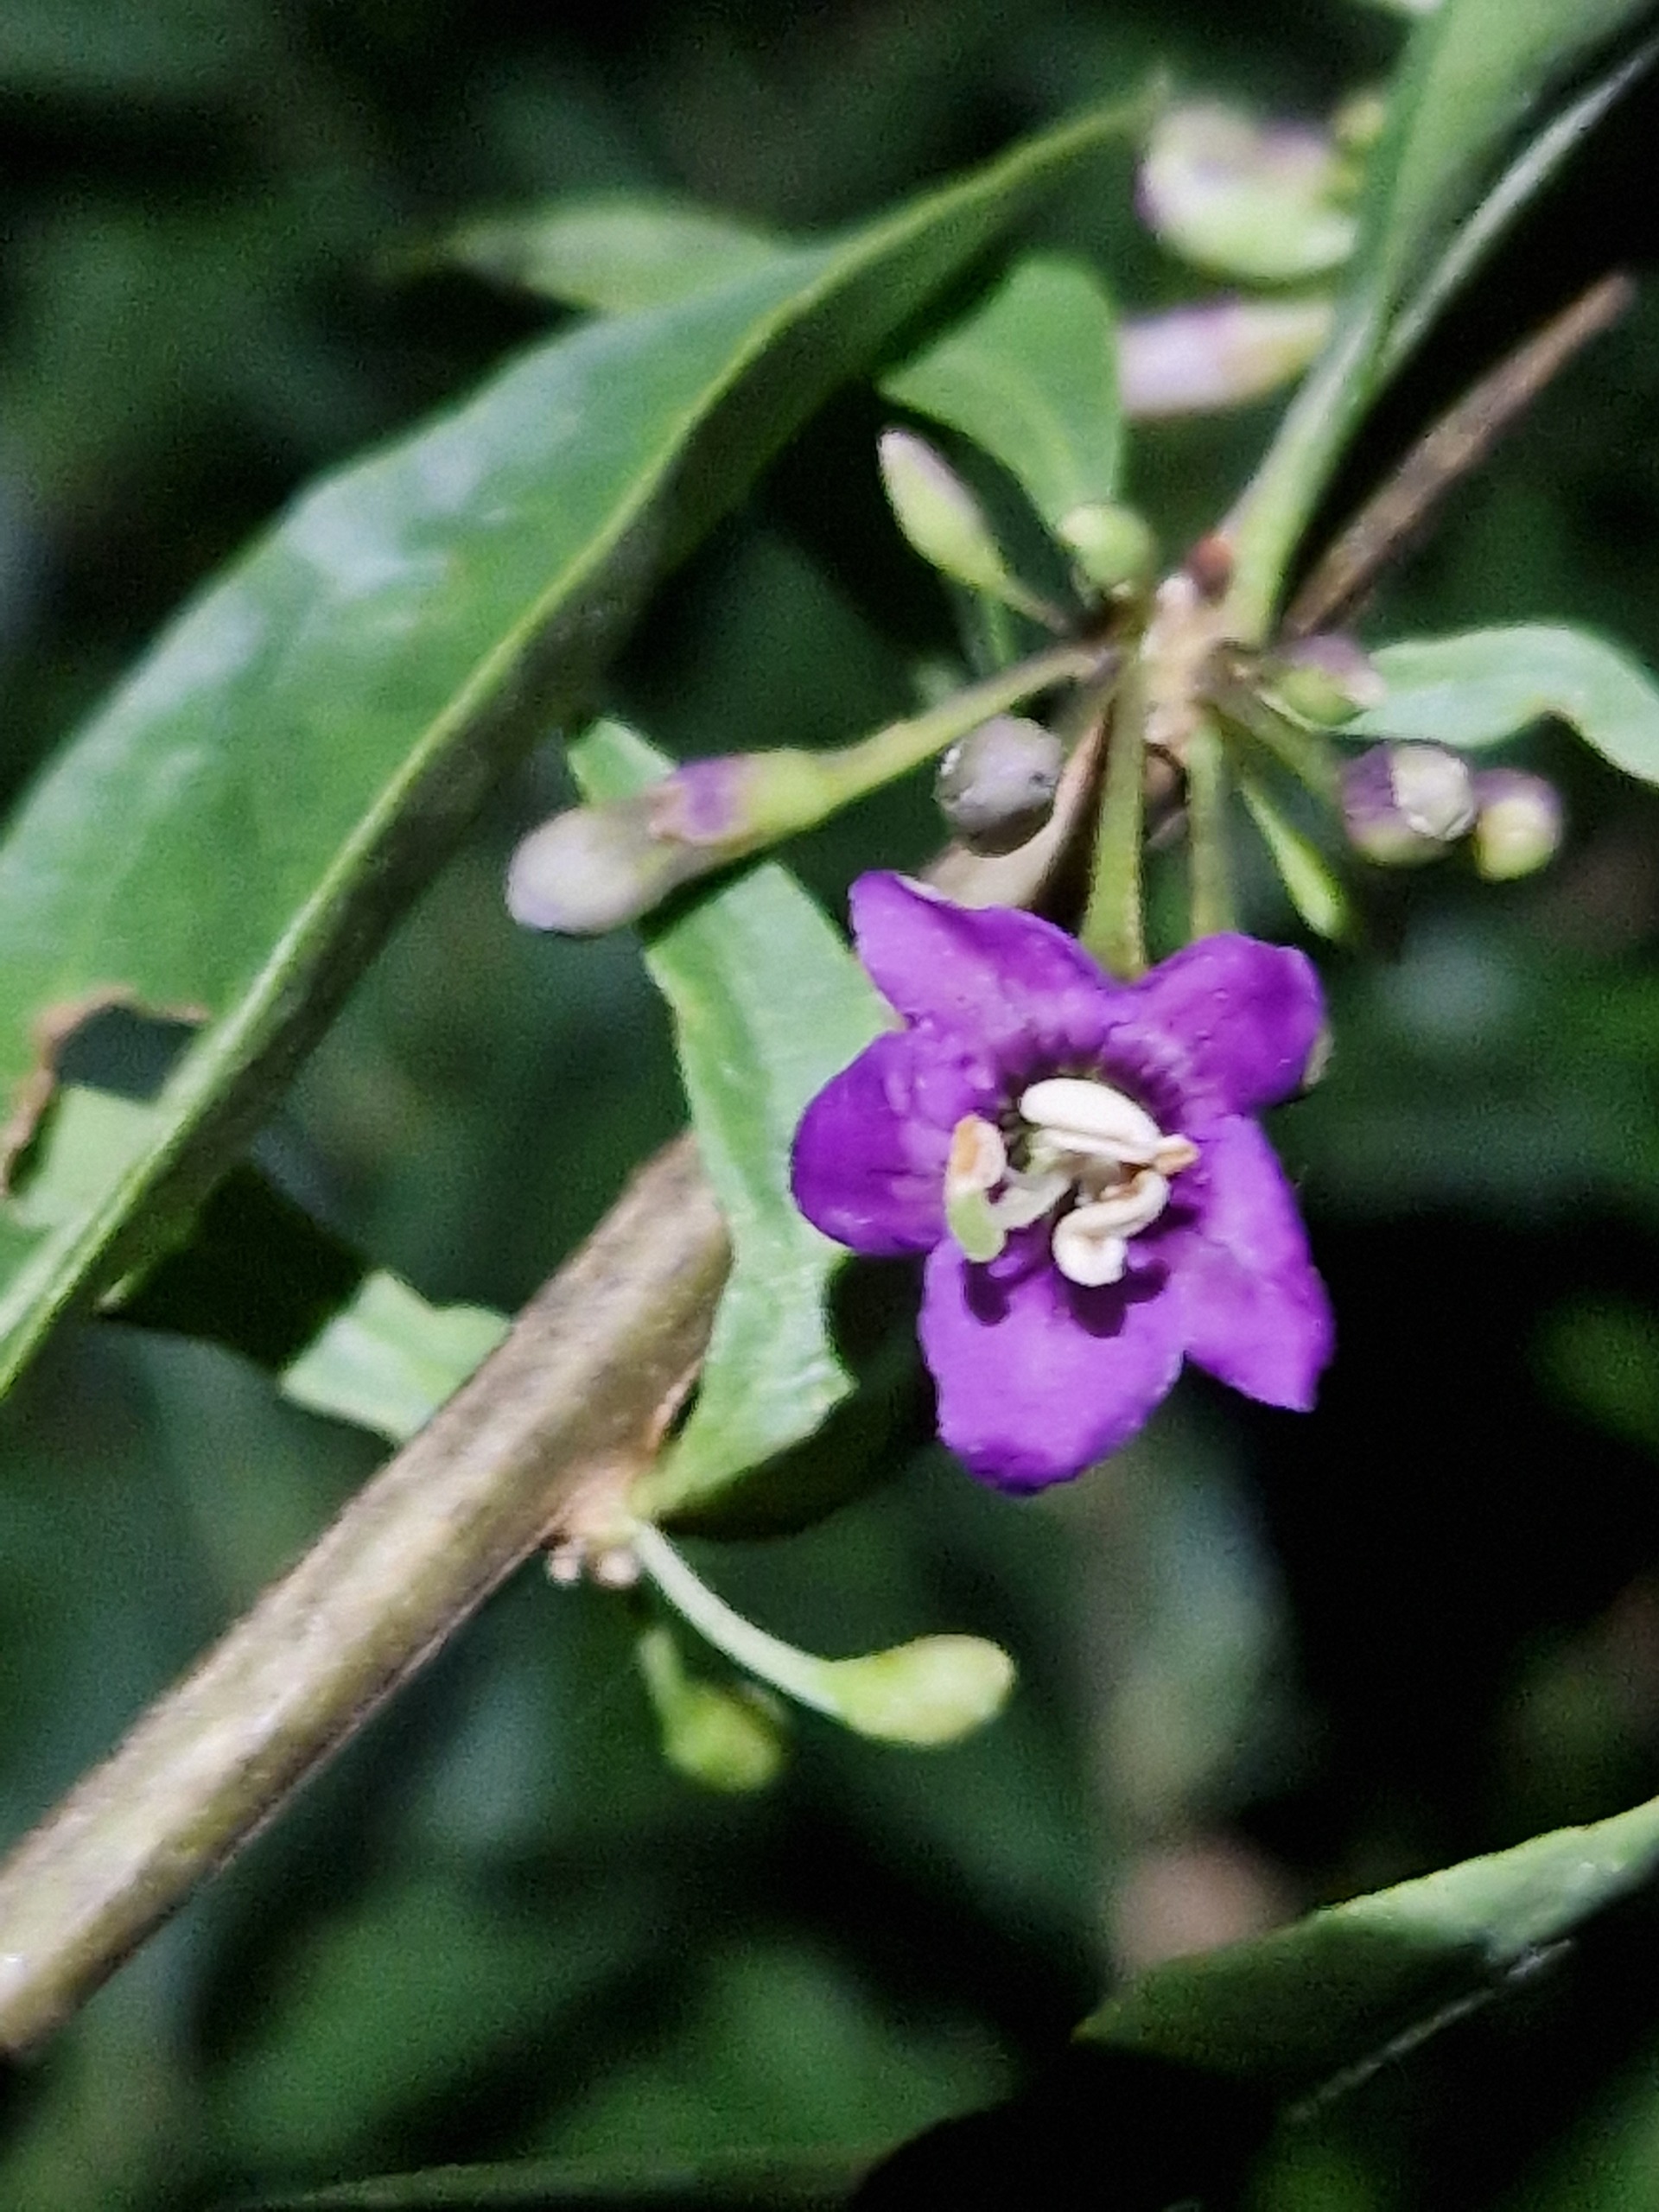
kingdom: Plantae
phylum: Tracheophyta
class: Magnoliopsida
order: Solanales
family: Solanaceae
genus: Lycium
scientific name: Lycium barbarum
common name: Bukketorn
